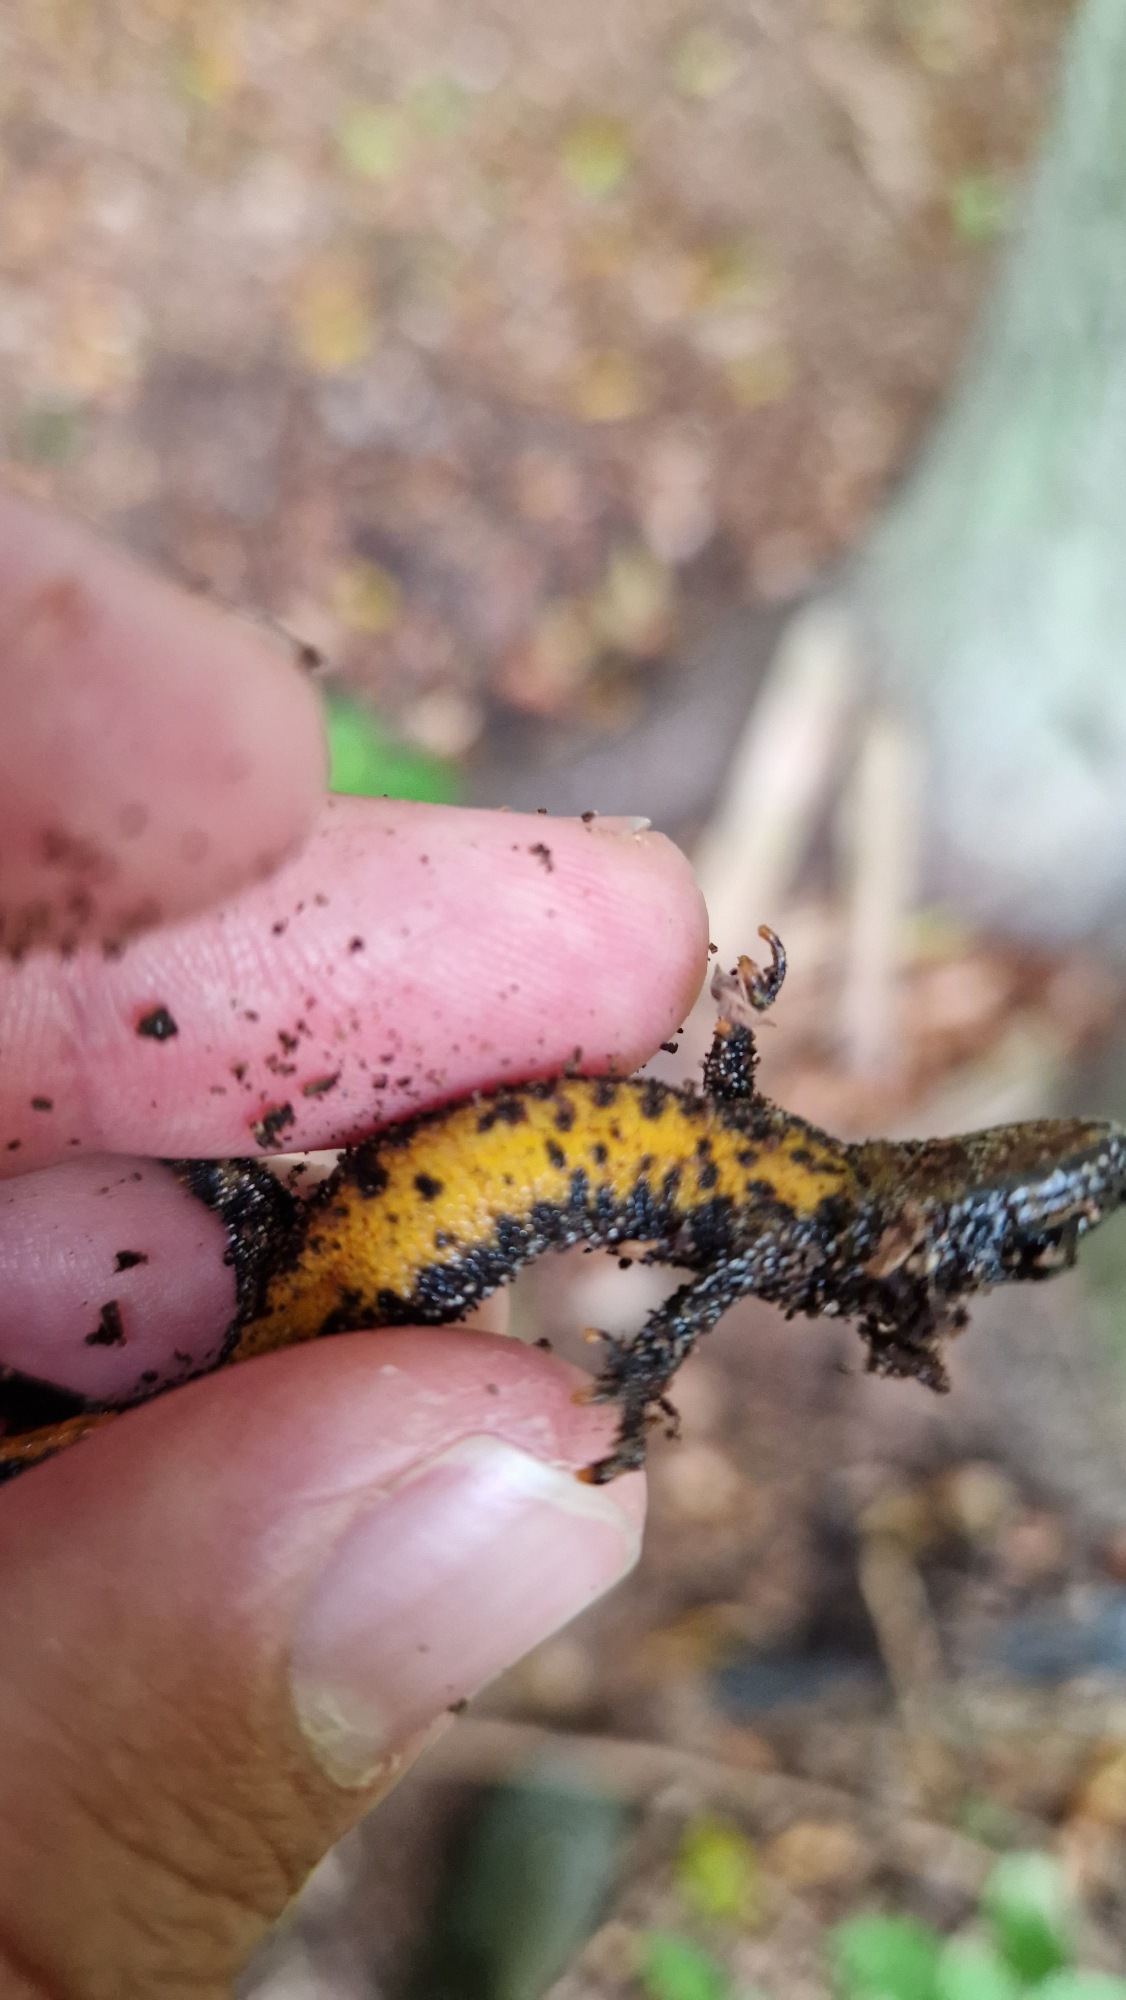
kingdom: Animalia
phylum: Chordata
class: Amphibia
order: Caudata
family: Salamandridae
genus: Triturus
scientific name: Triturus cristatus
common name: Stor vandsalamander
